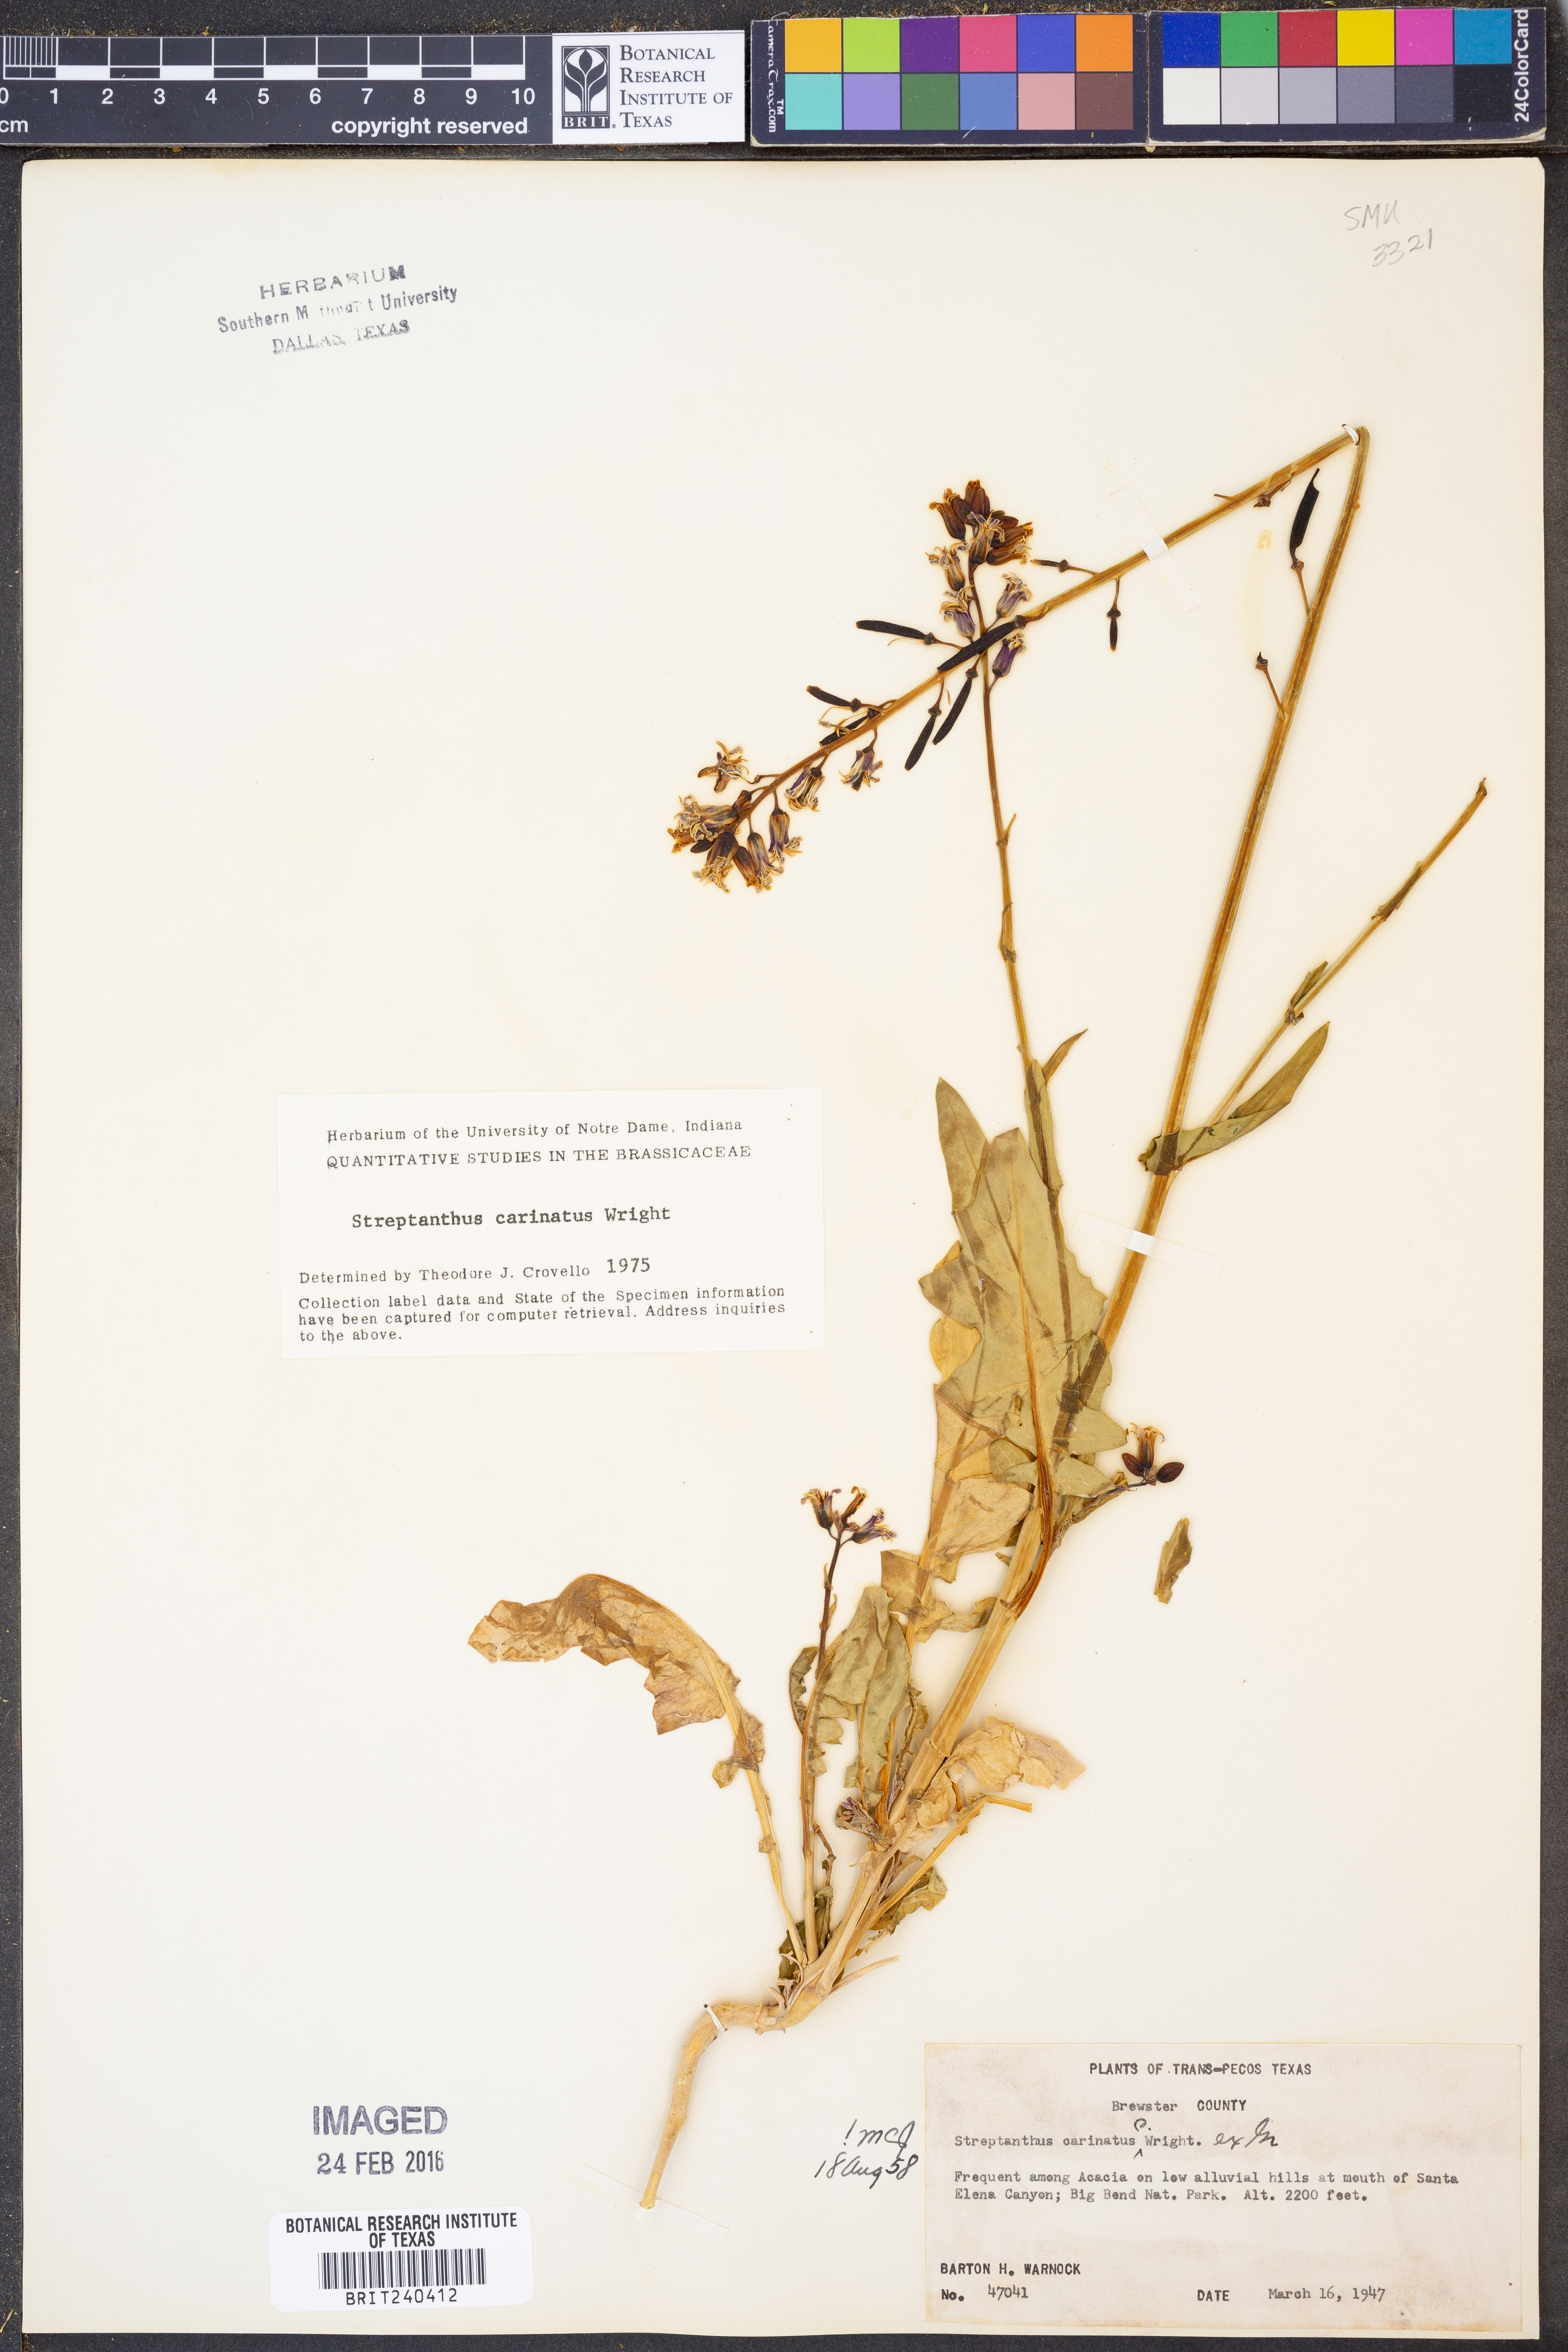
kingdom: Plantae
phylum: Tracheophyta
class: Magnoliopsida
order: Brassicales
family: Brassicaceae
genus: Streptanthus
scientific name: Streptanthus carinatus
